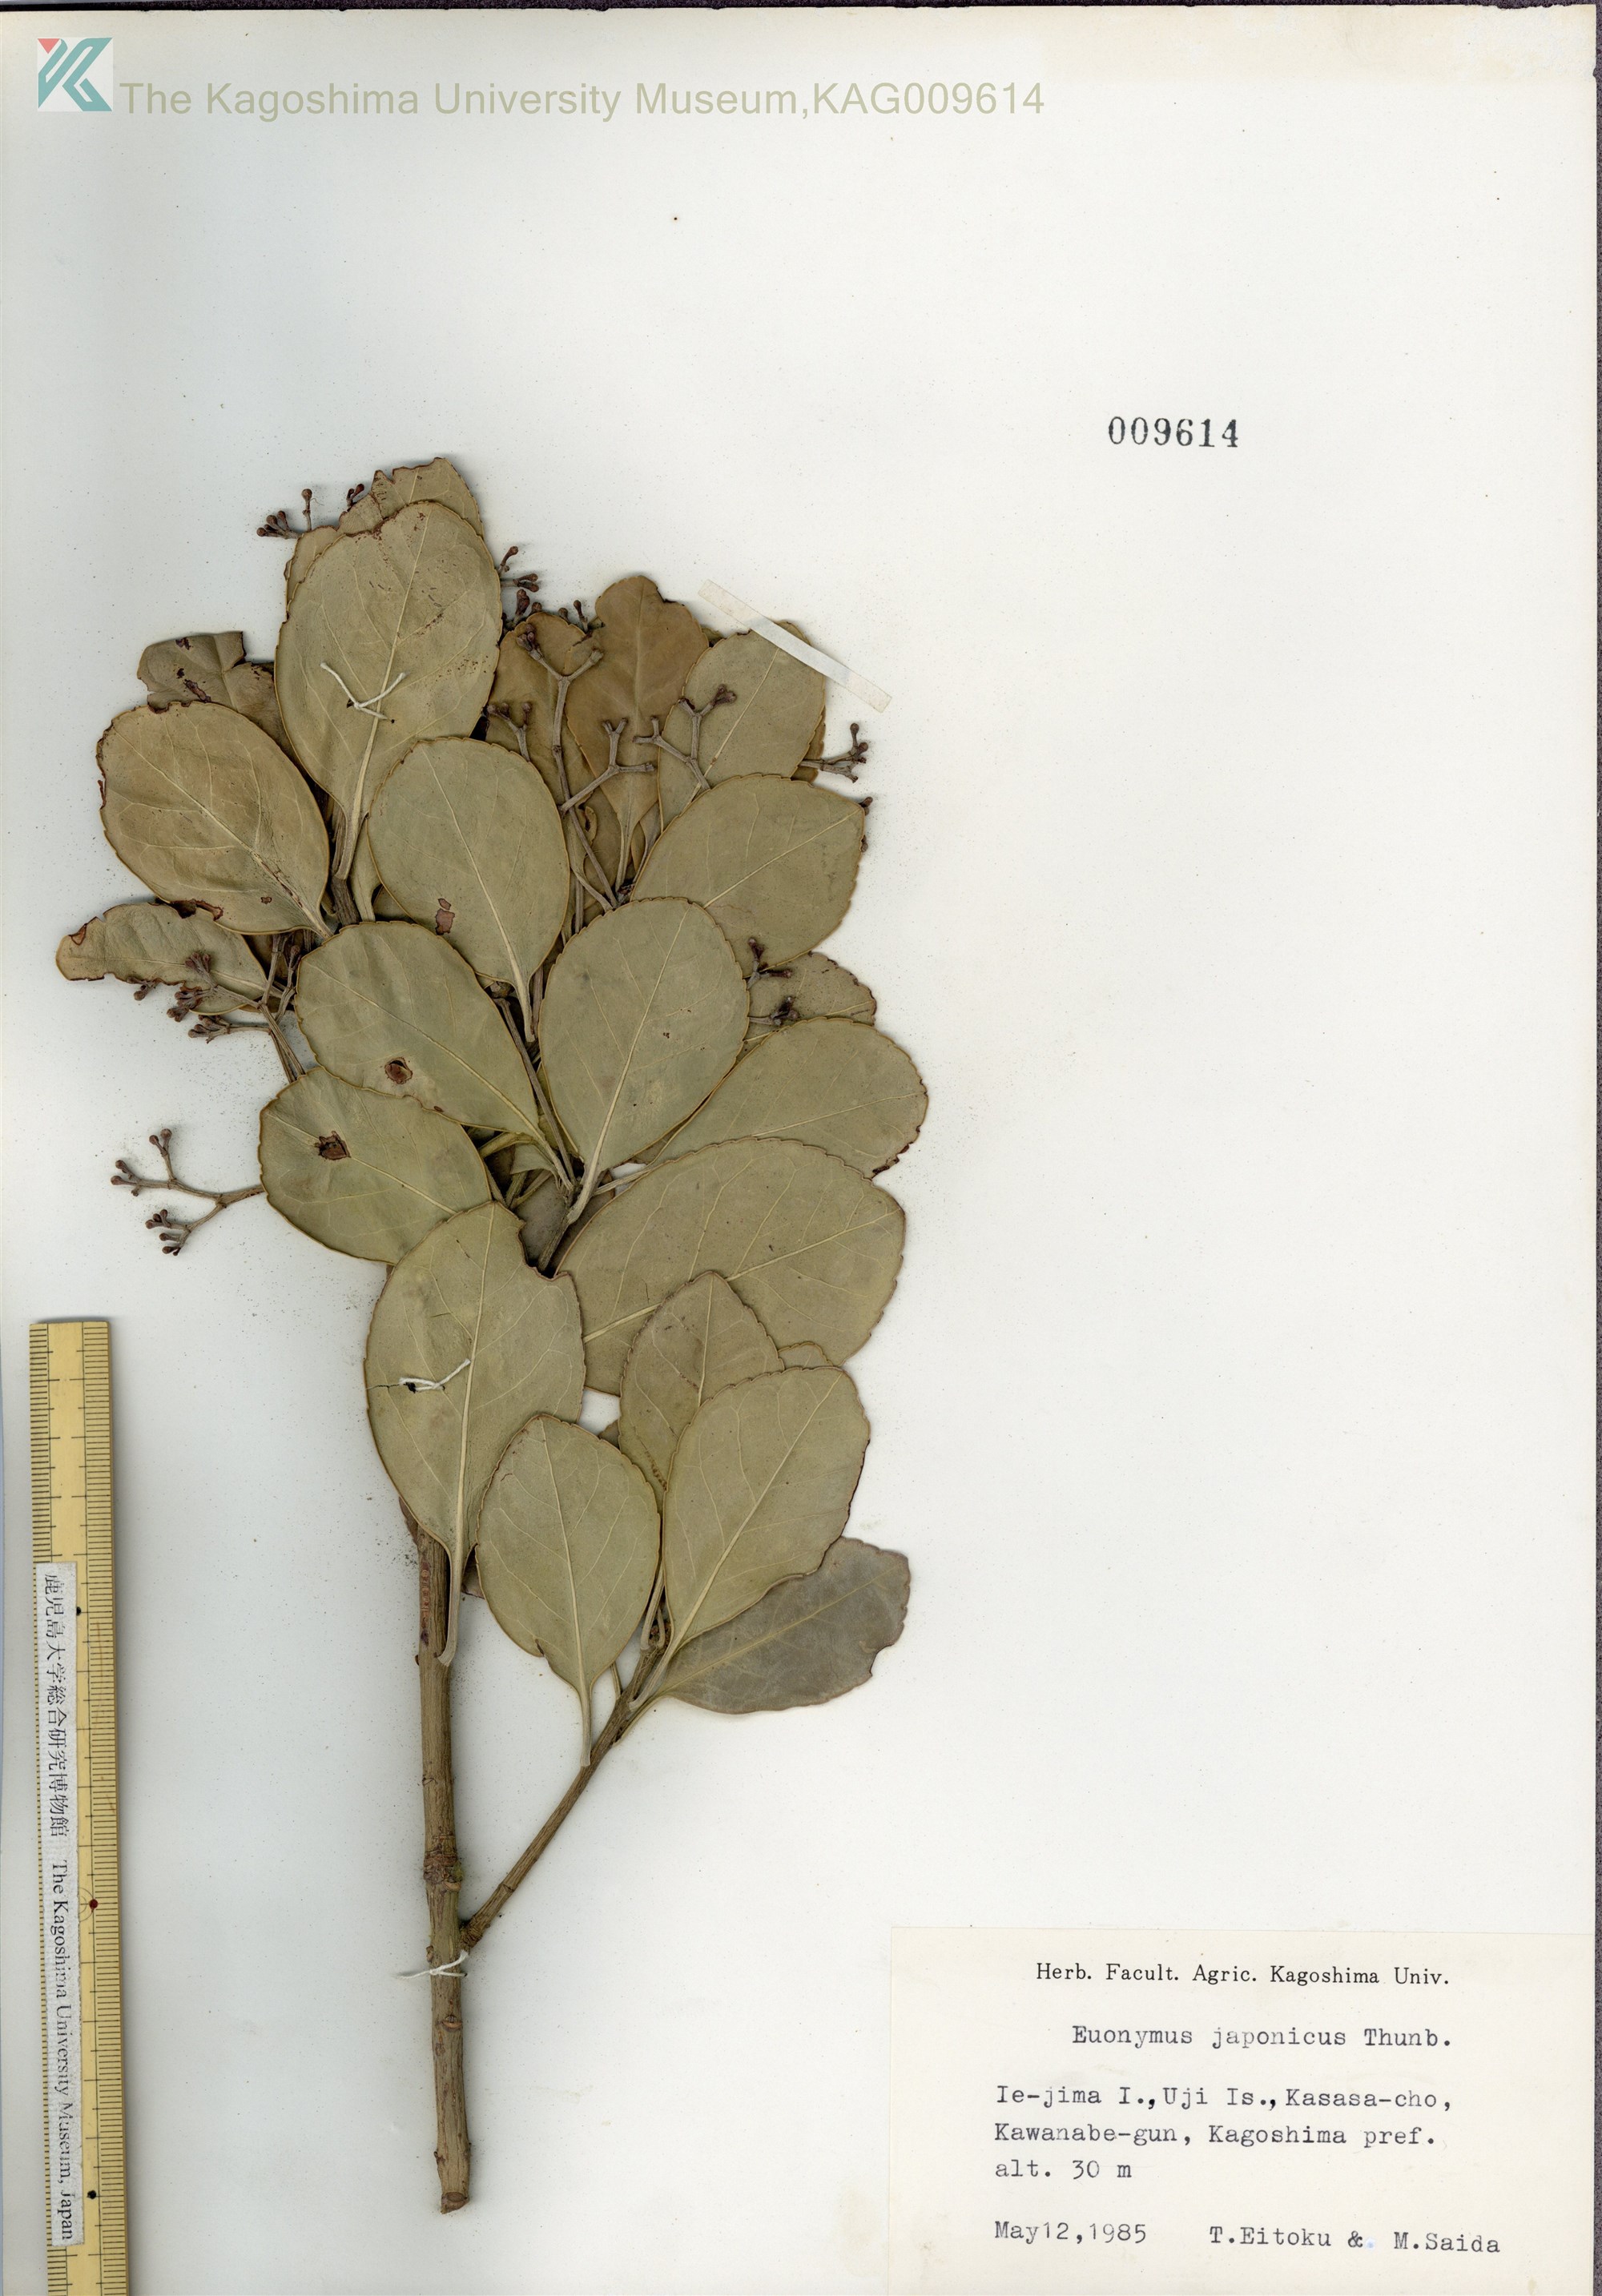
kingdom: Plantae
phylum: Tracheophyta
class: Magnoliopsida
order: Celastrales
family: Celastraceae
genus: Euonymus
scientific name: Euonymus japonicus
